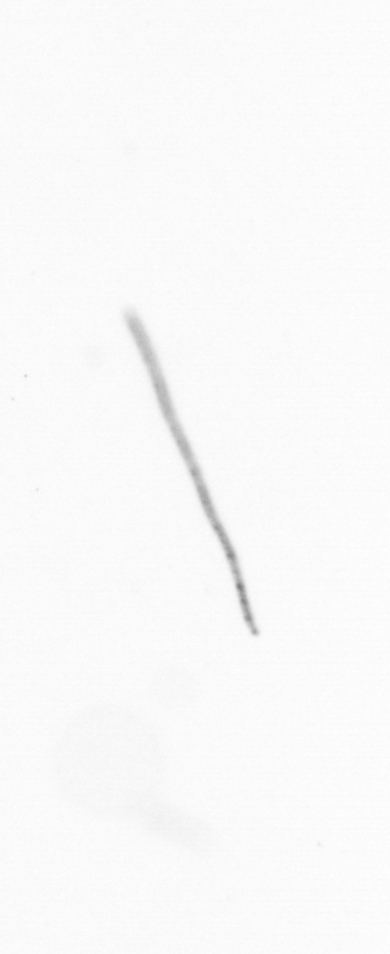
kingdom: Chromista
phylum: Ochrophyta
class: Bacillariophyceae
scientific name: Bacillariophyceae
